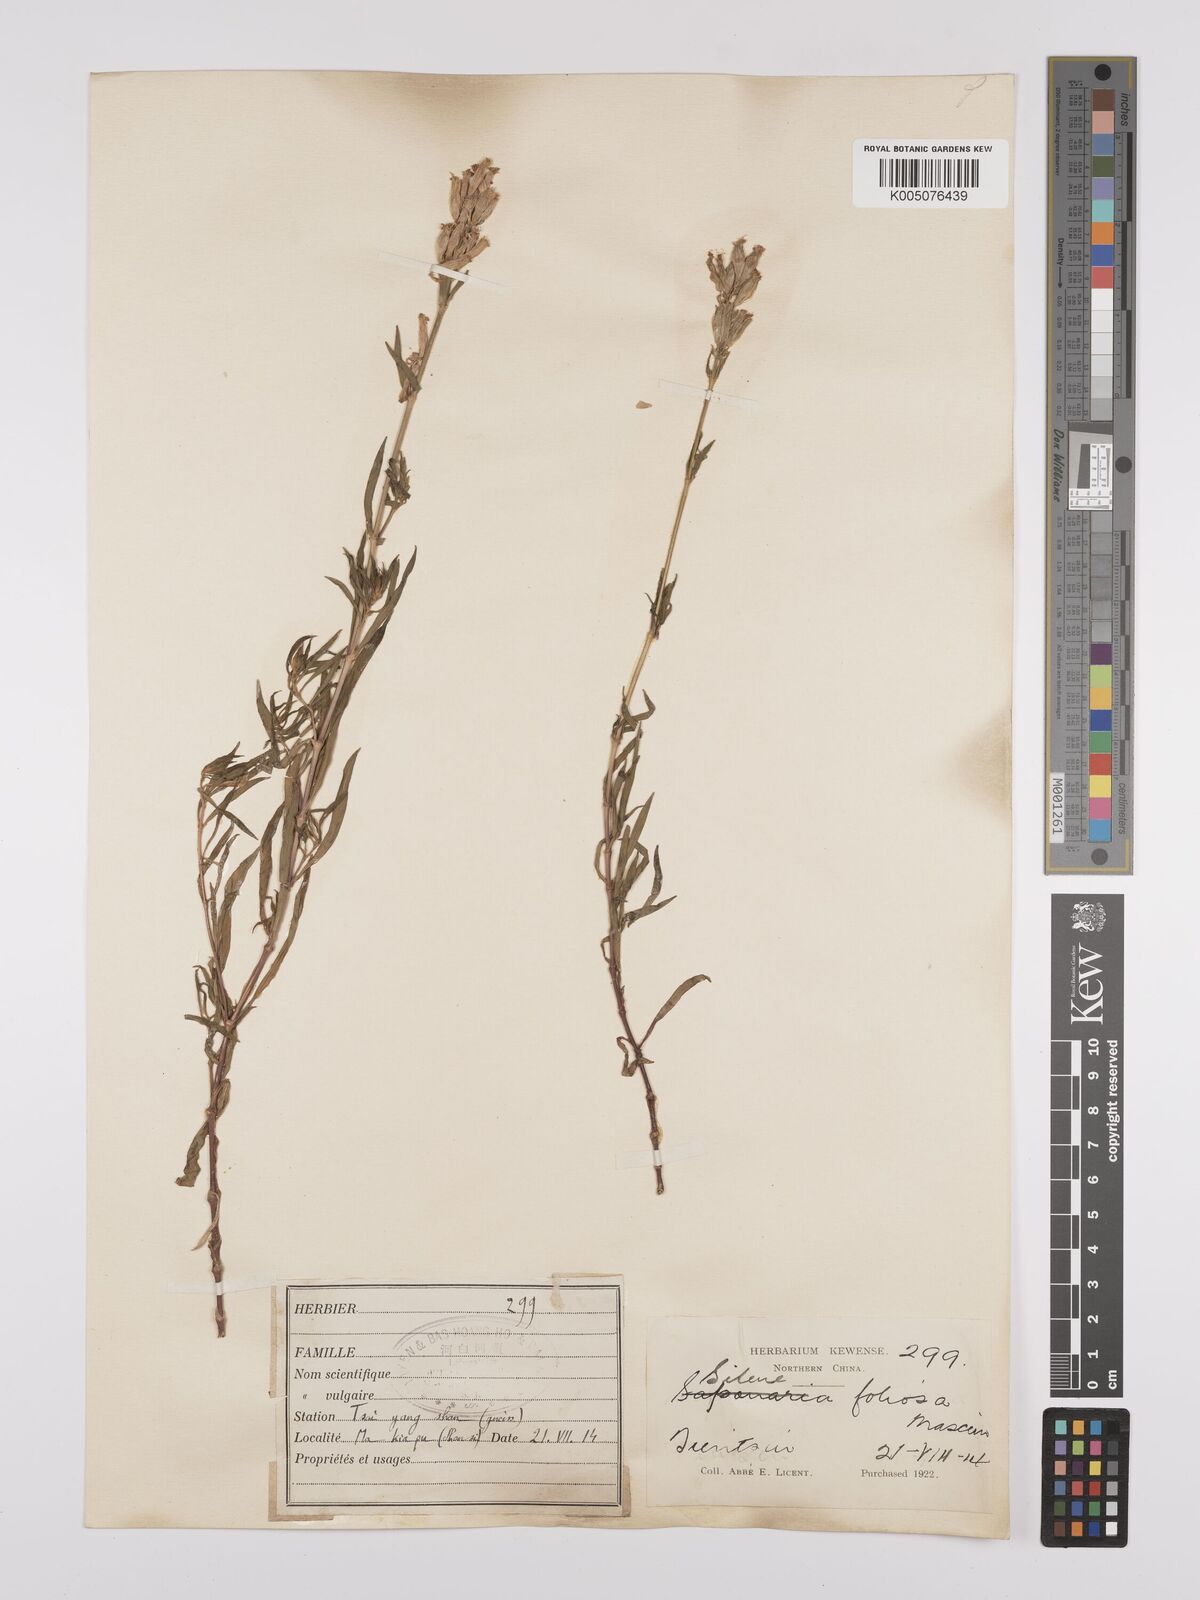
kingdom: Plantae
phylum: Tracheophyta
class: Magnoliopsida
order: Caryophyllales
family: Caryophyllaceae
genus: Silene
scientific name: Silene
